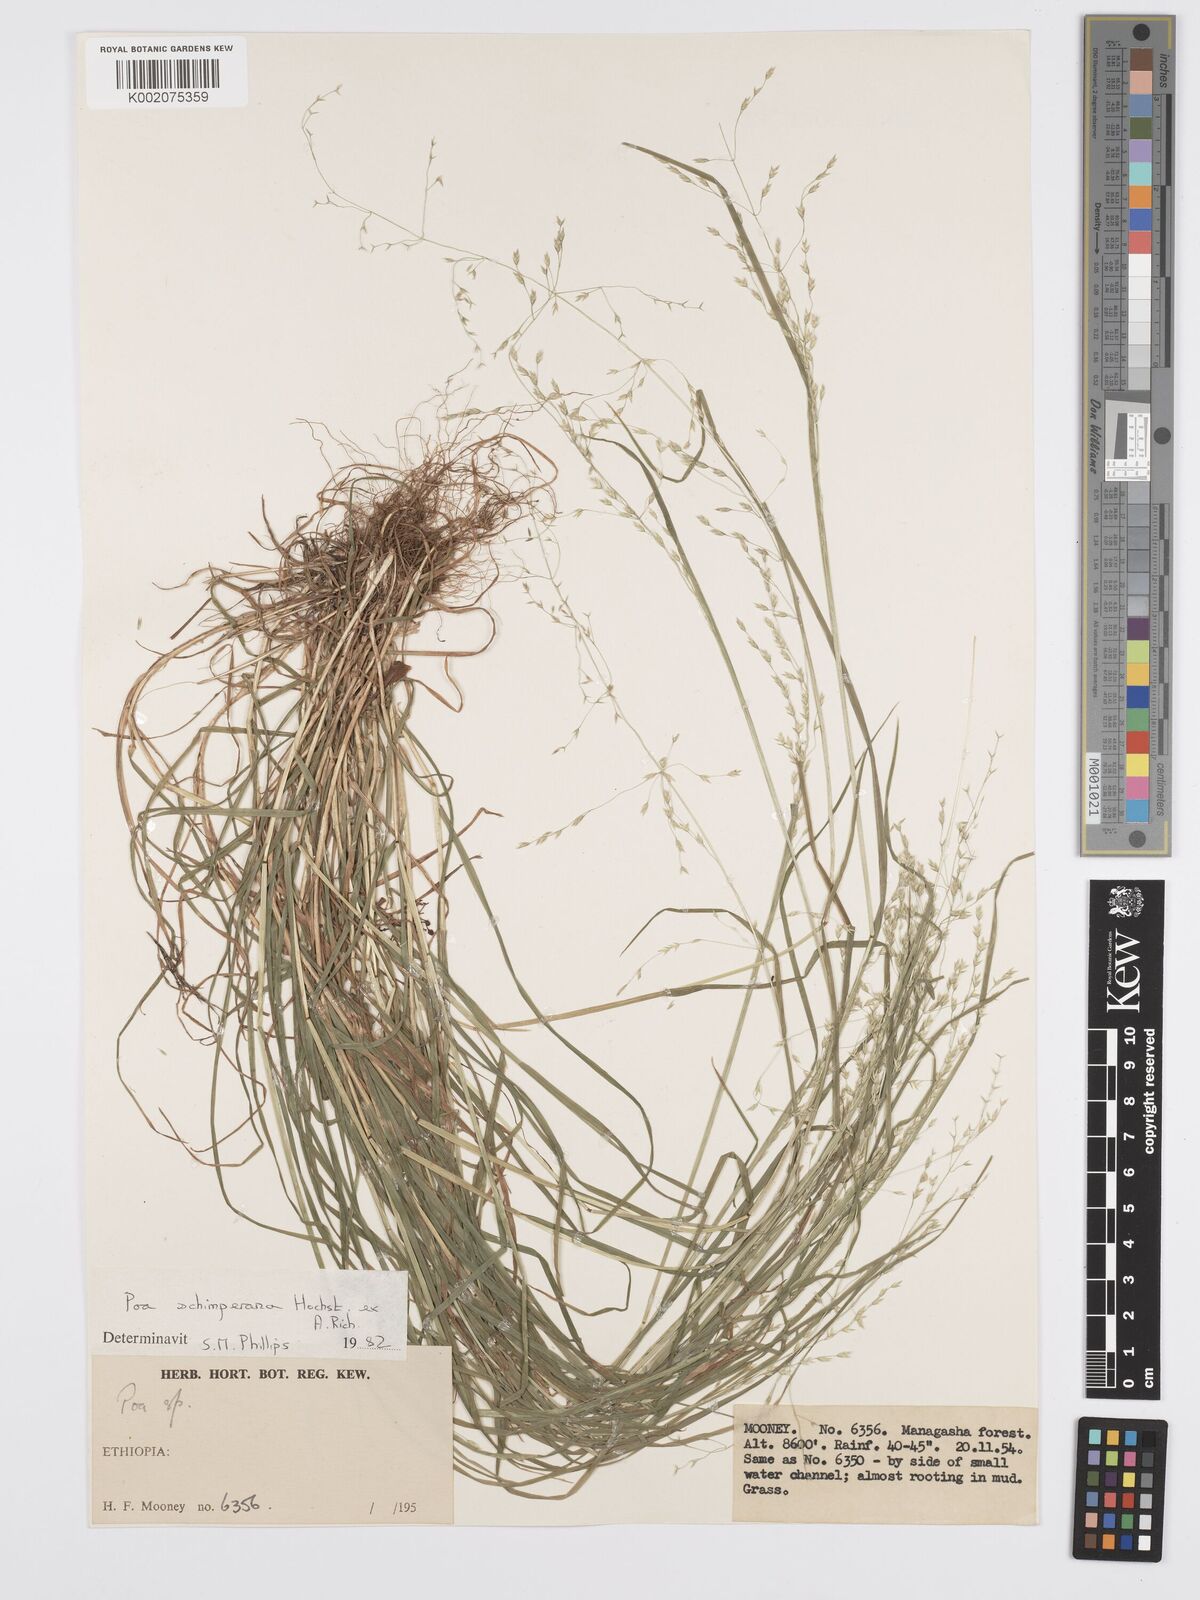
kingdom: Plantae
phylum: Tracheophyta
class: Liliopsida
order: Poales
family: Poaceae
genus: Poa
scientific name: Poa schimperiana
